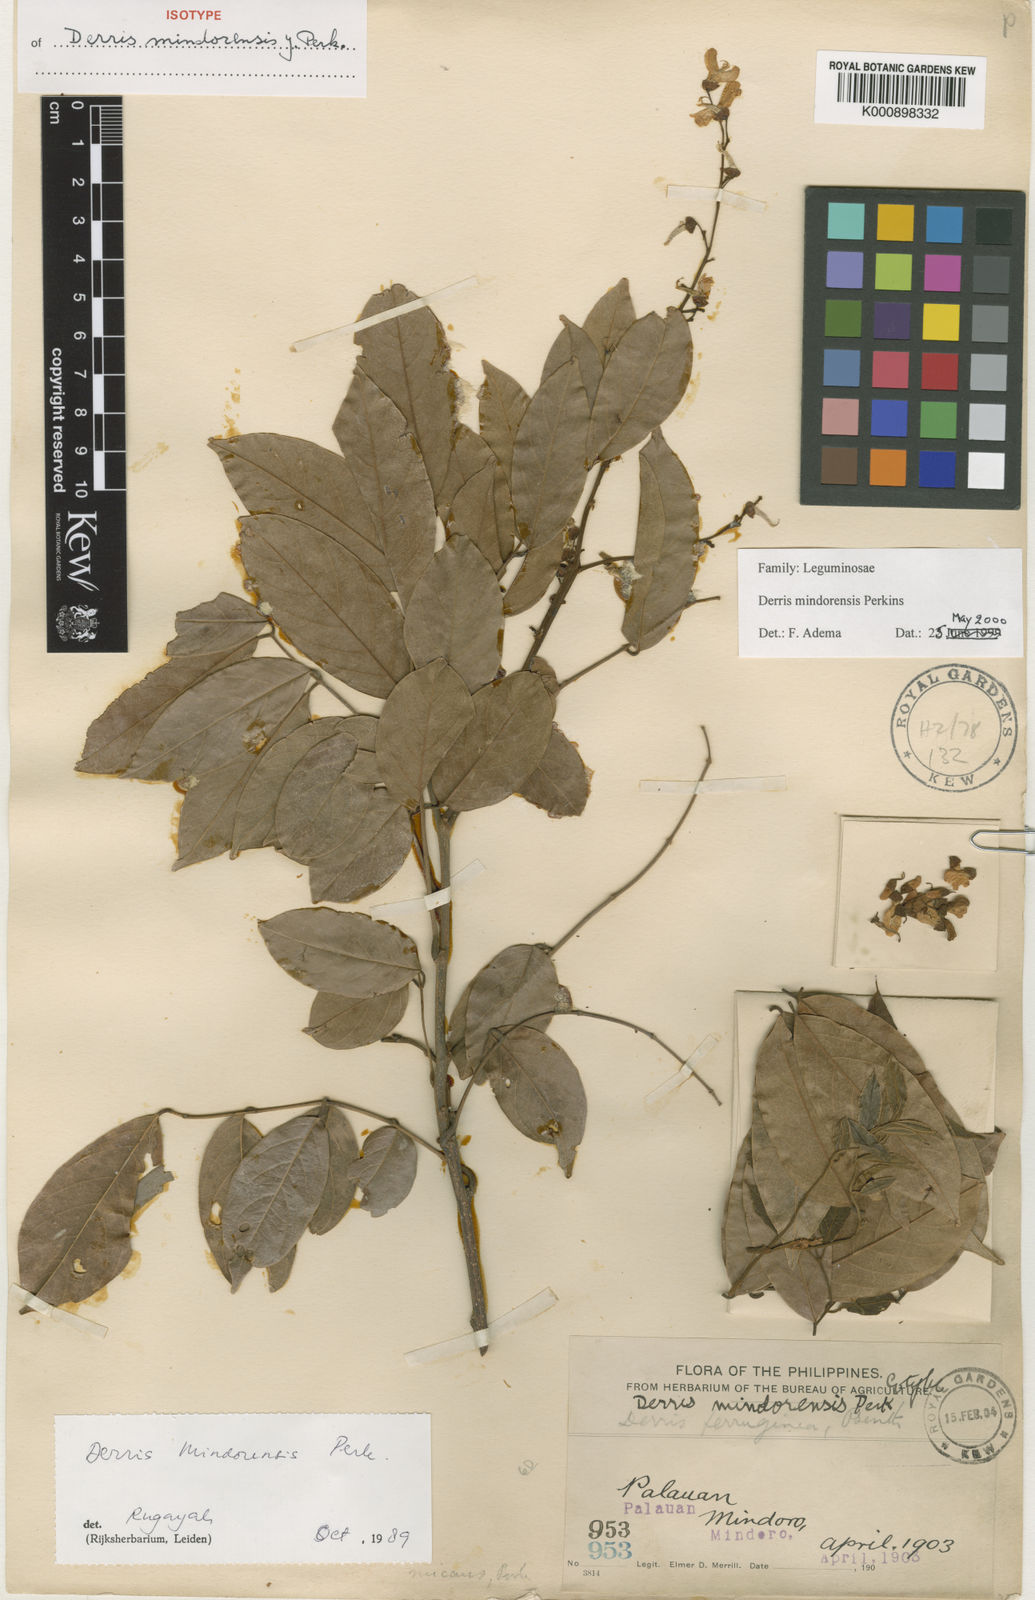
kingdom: Plantae
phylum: Tracheophyta
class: Magnoliopsida
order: Fabales
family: Fabaceae
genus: Derris
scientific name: Derris pubipetala
